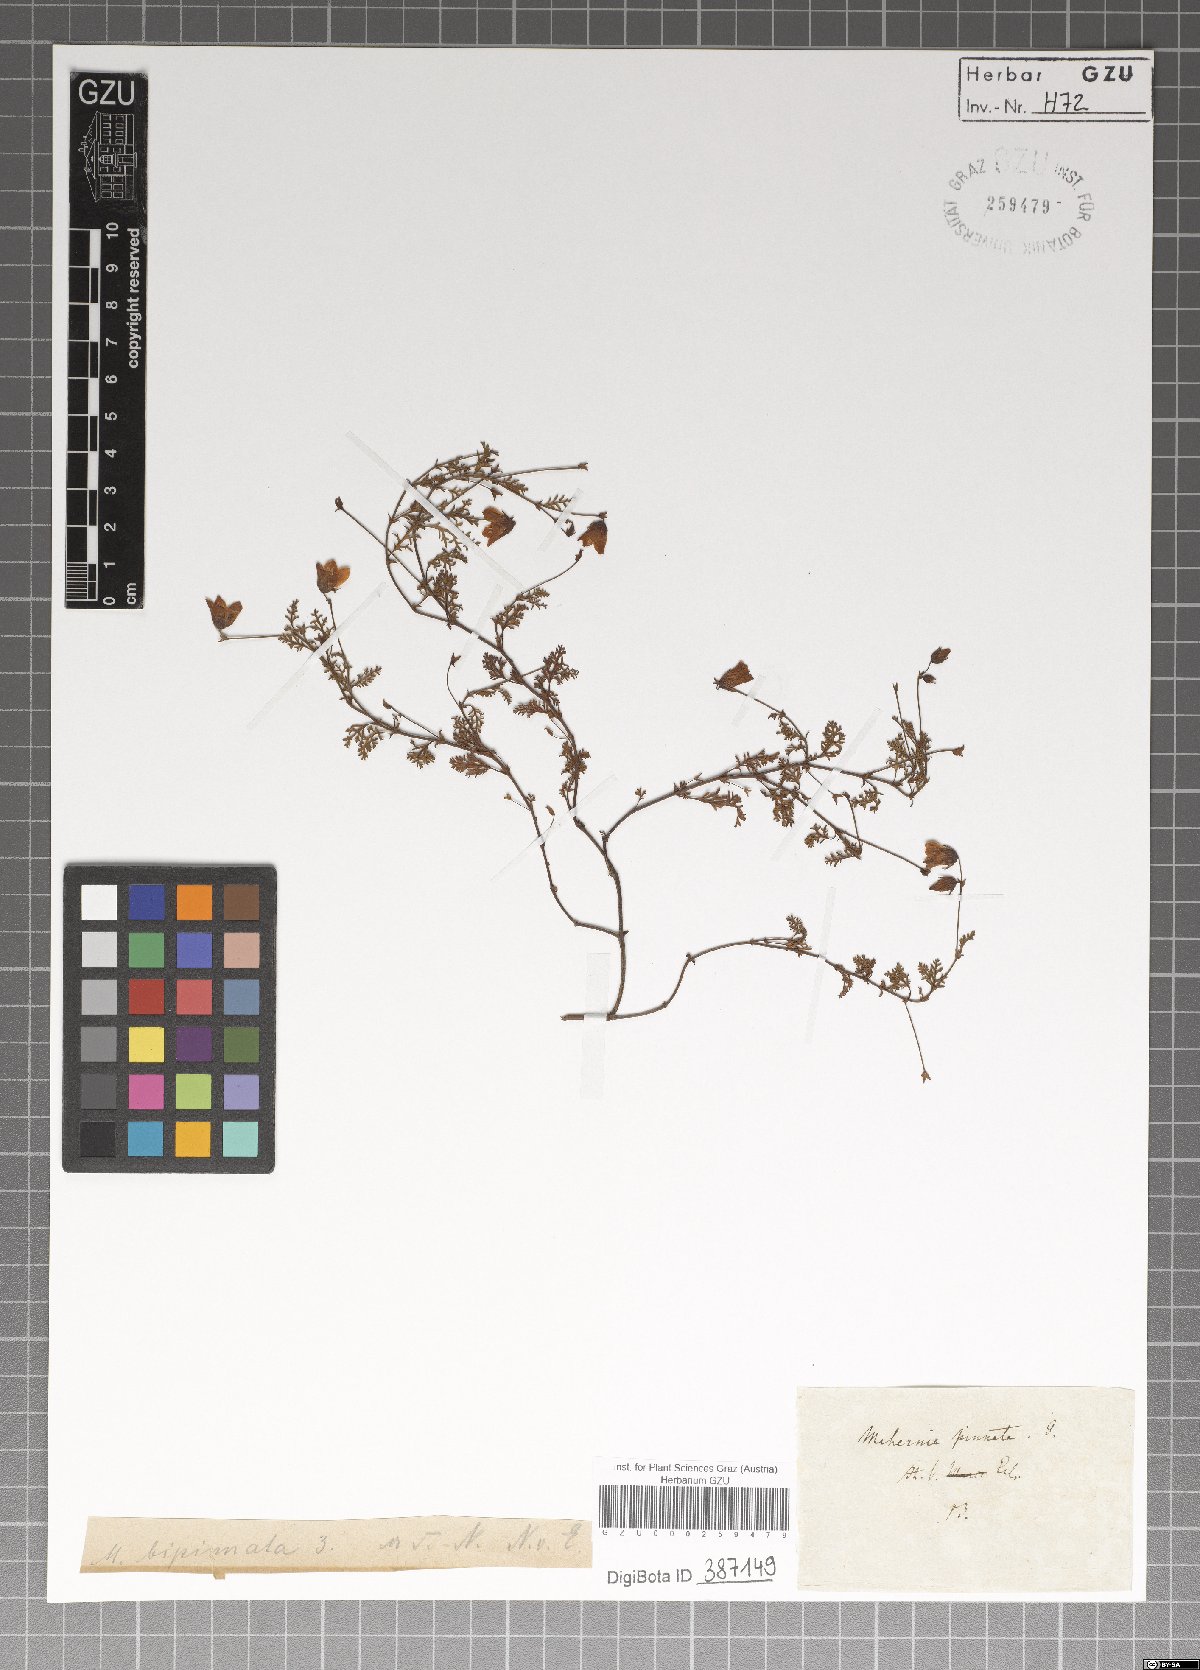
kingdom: Plantae
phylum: Tracheophyta
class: Magnoliopsida
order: Malvales
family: Malvaceae
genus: Hermannia
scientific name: Hermannia pinnata
